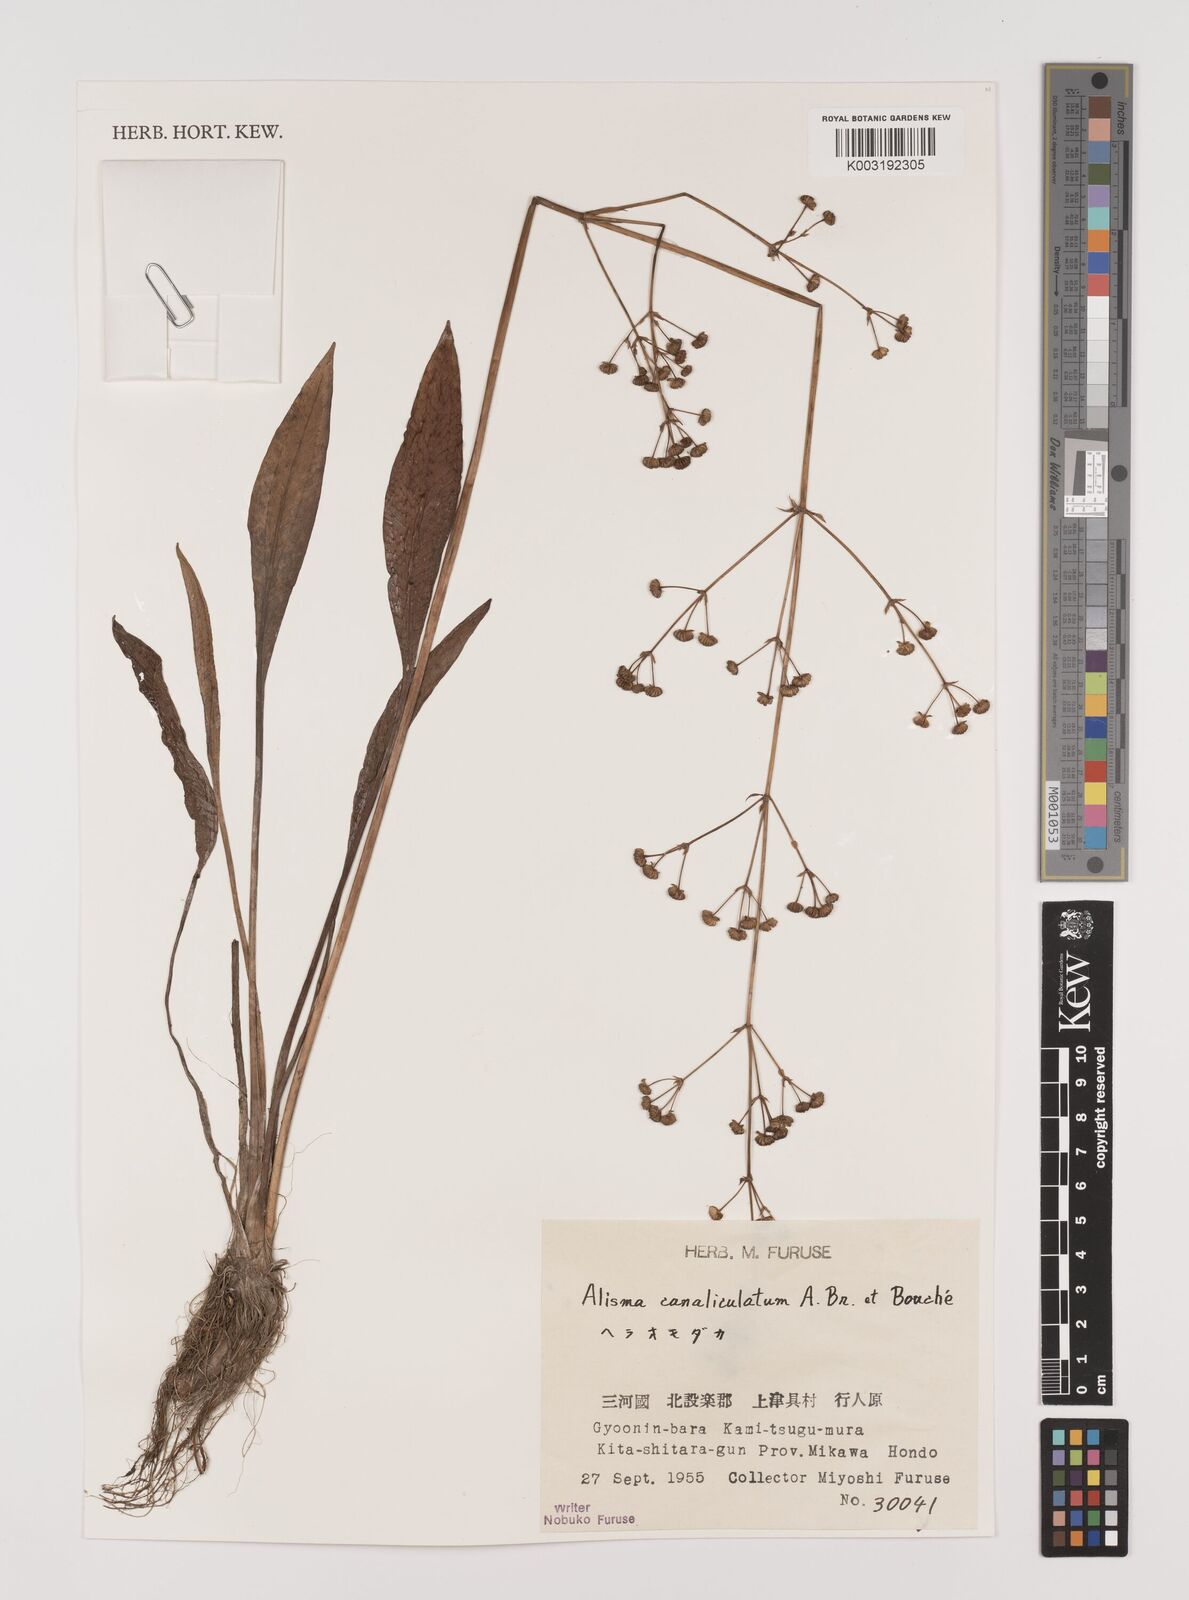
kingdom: Plantae
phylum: Tracheophyta
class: Liliopsida
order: Alismatales
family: Alismataceae
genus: Alisma
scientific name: Alisma canaliculatum
